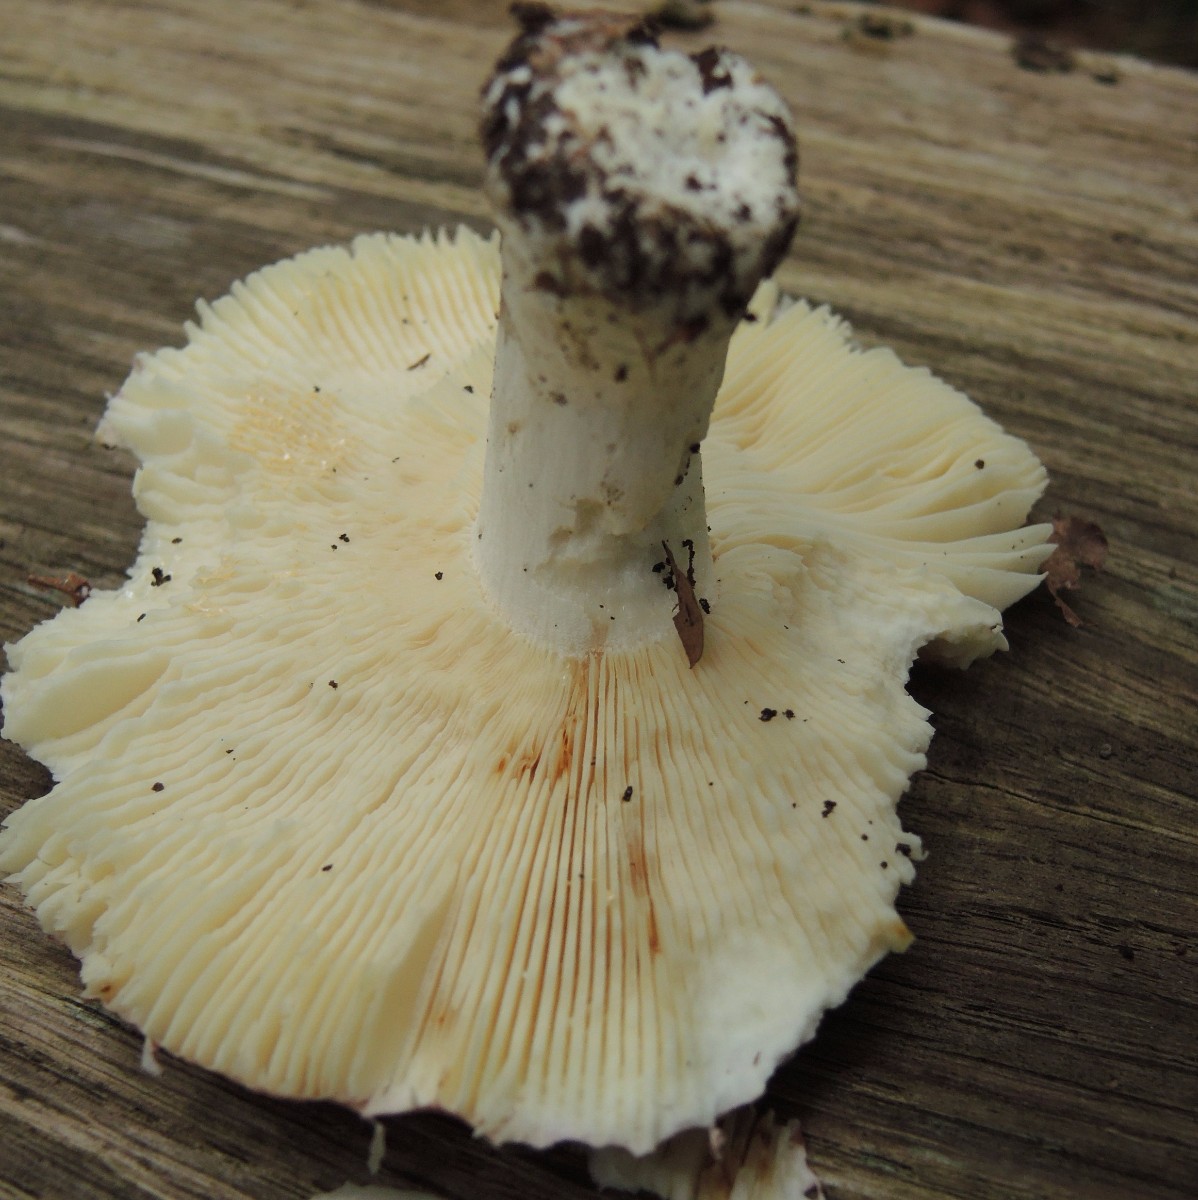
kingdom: Fungi
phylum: Basidiomycota
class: Agaricomycetes
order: Russulales
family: Russulaceae
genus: Russula
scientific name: Russula
